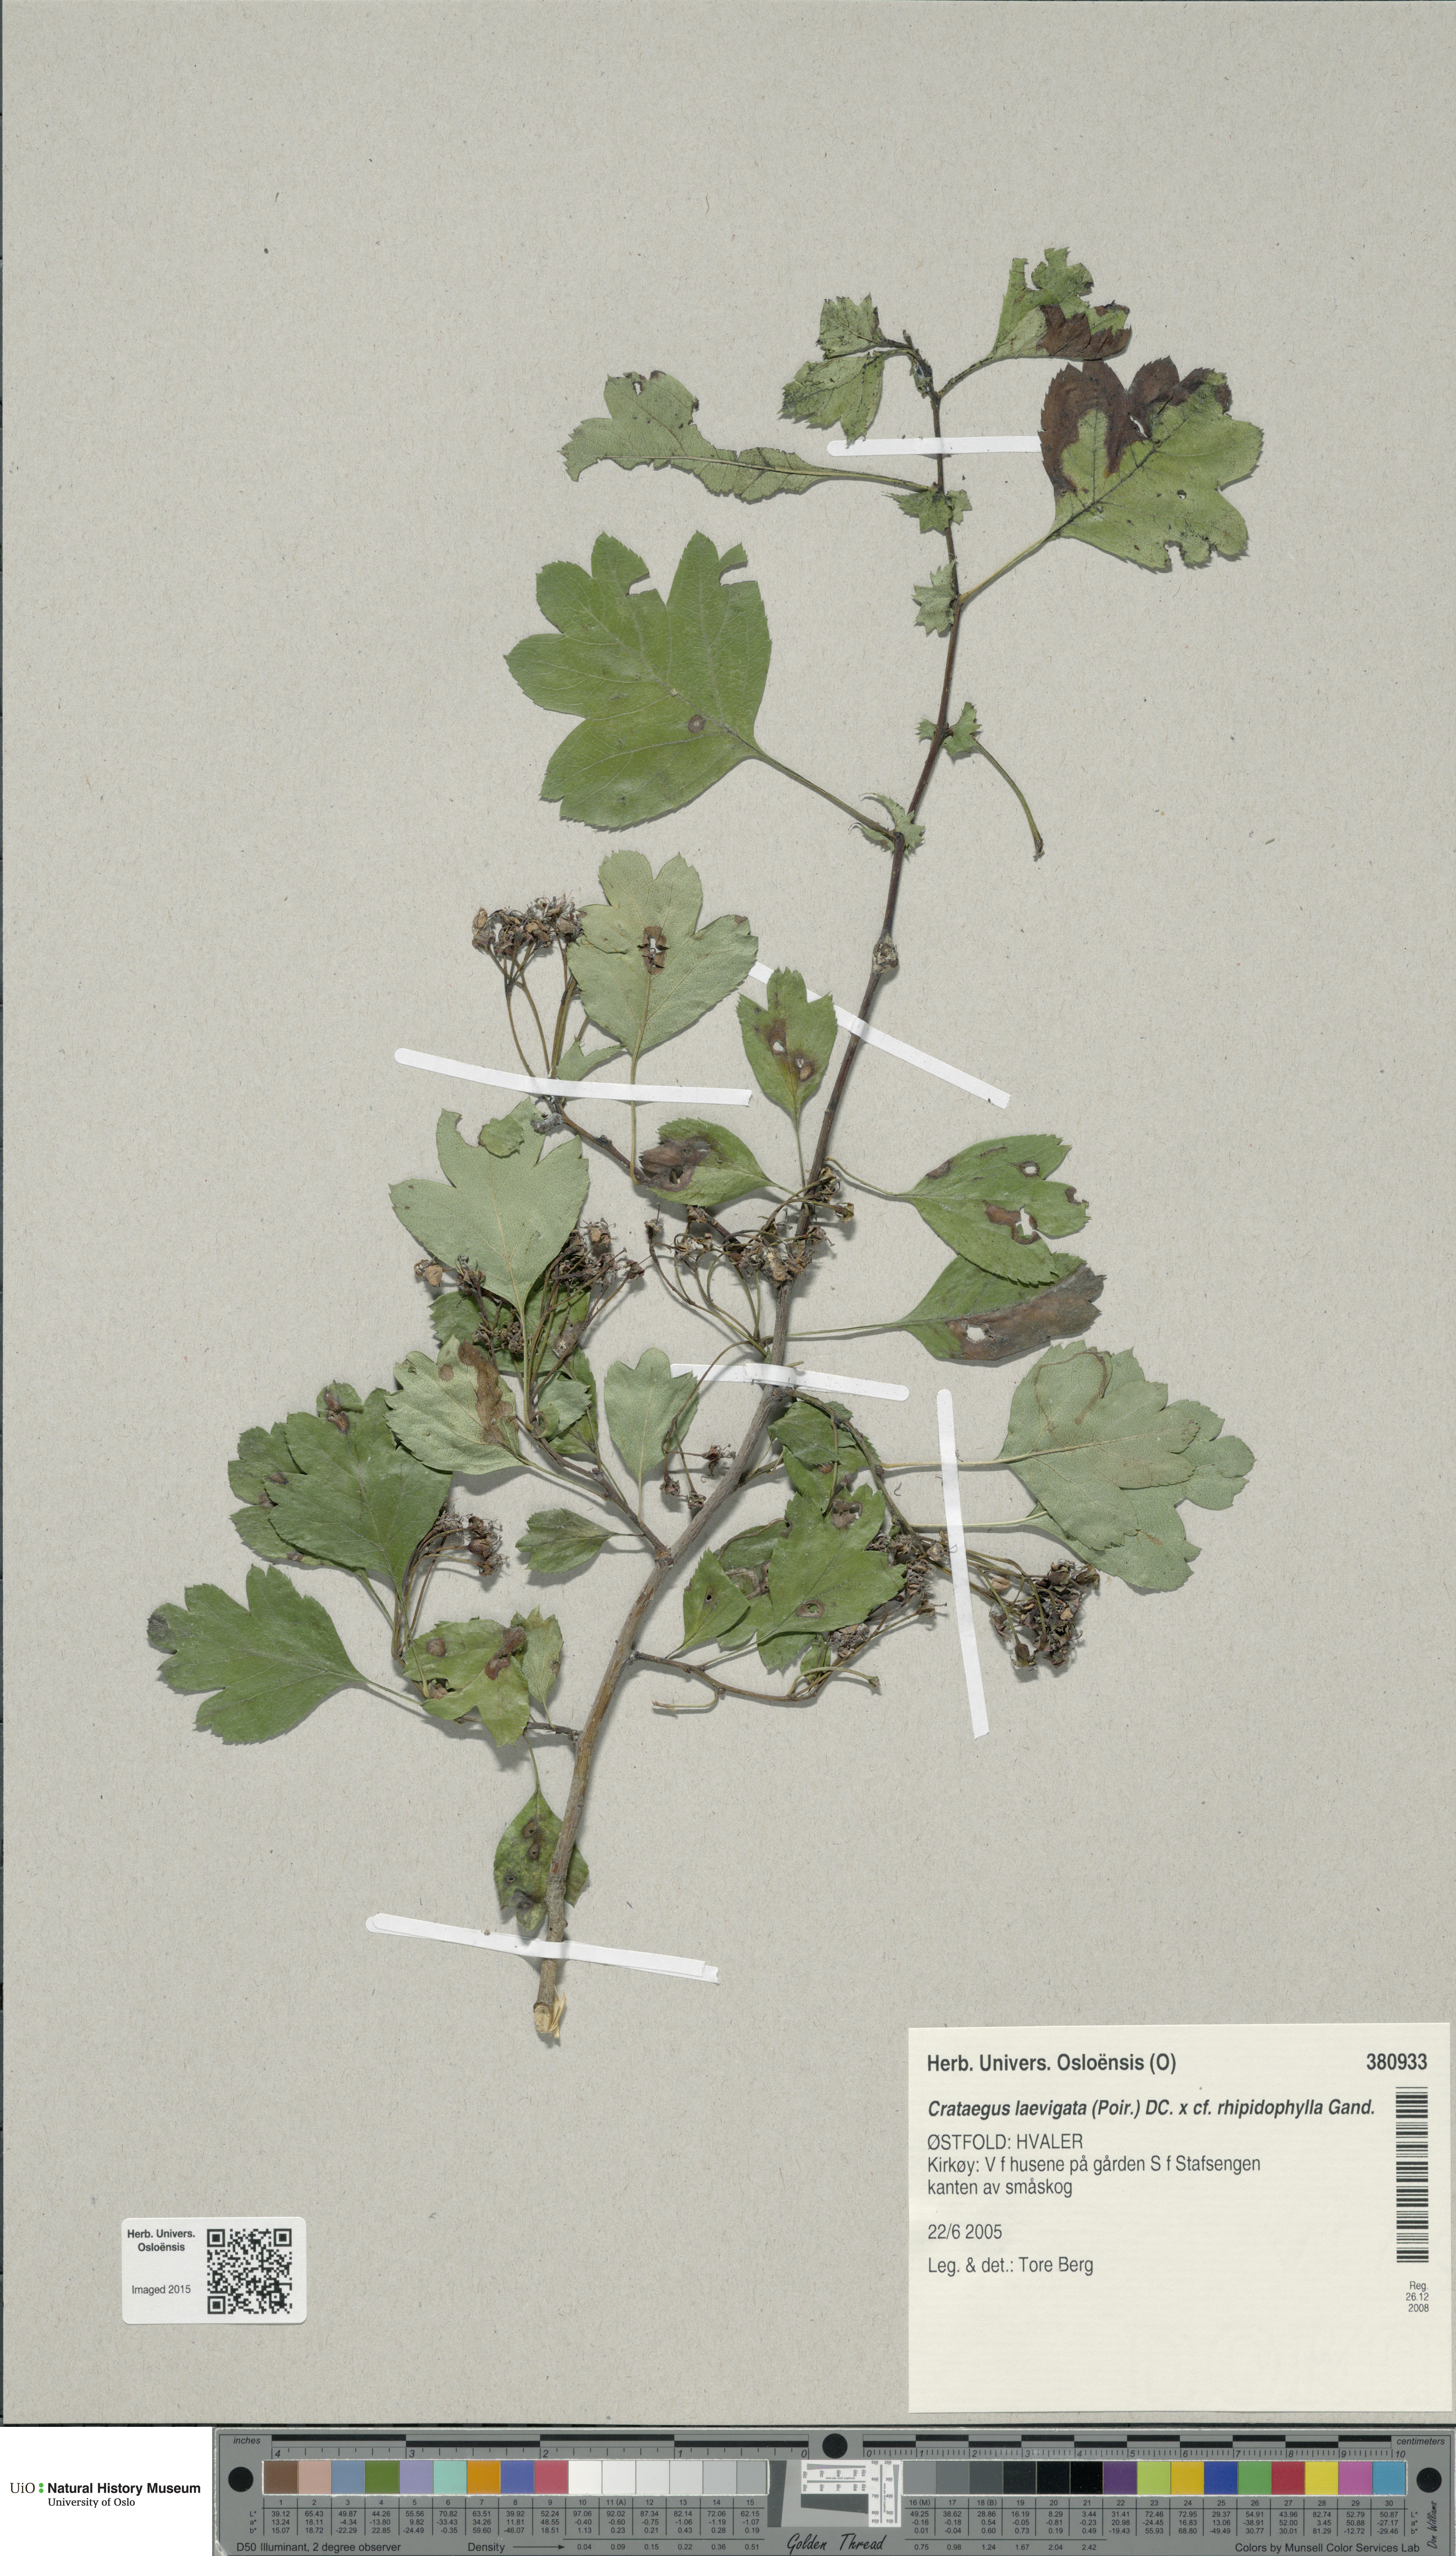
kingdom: Plantae
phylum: Tracheophyta
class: Magnoliopsida
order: Rosales
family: Rosaceae
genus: Crataegus
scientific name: Crataegus
